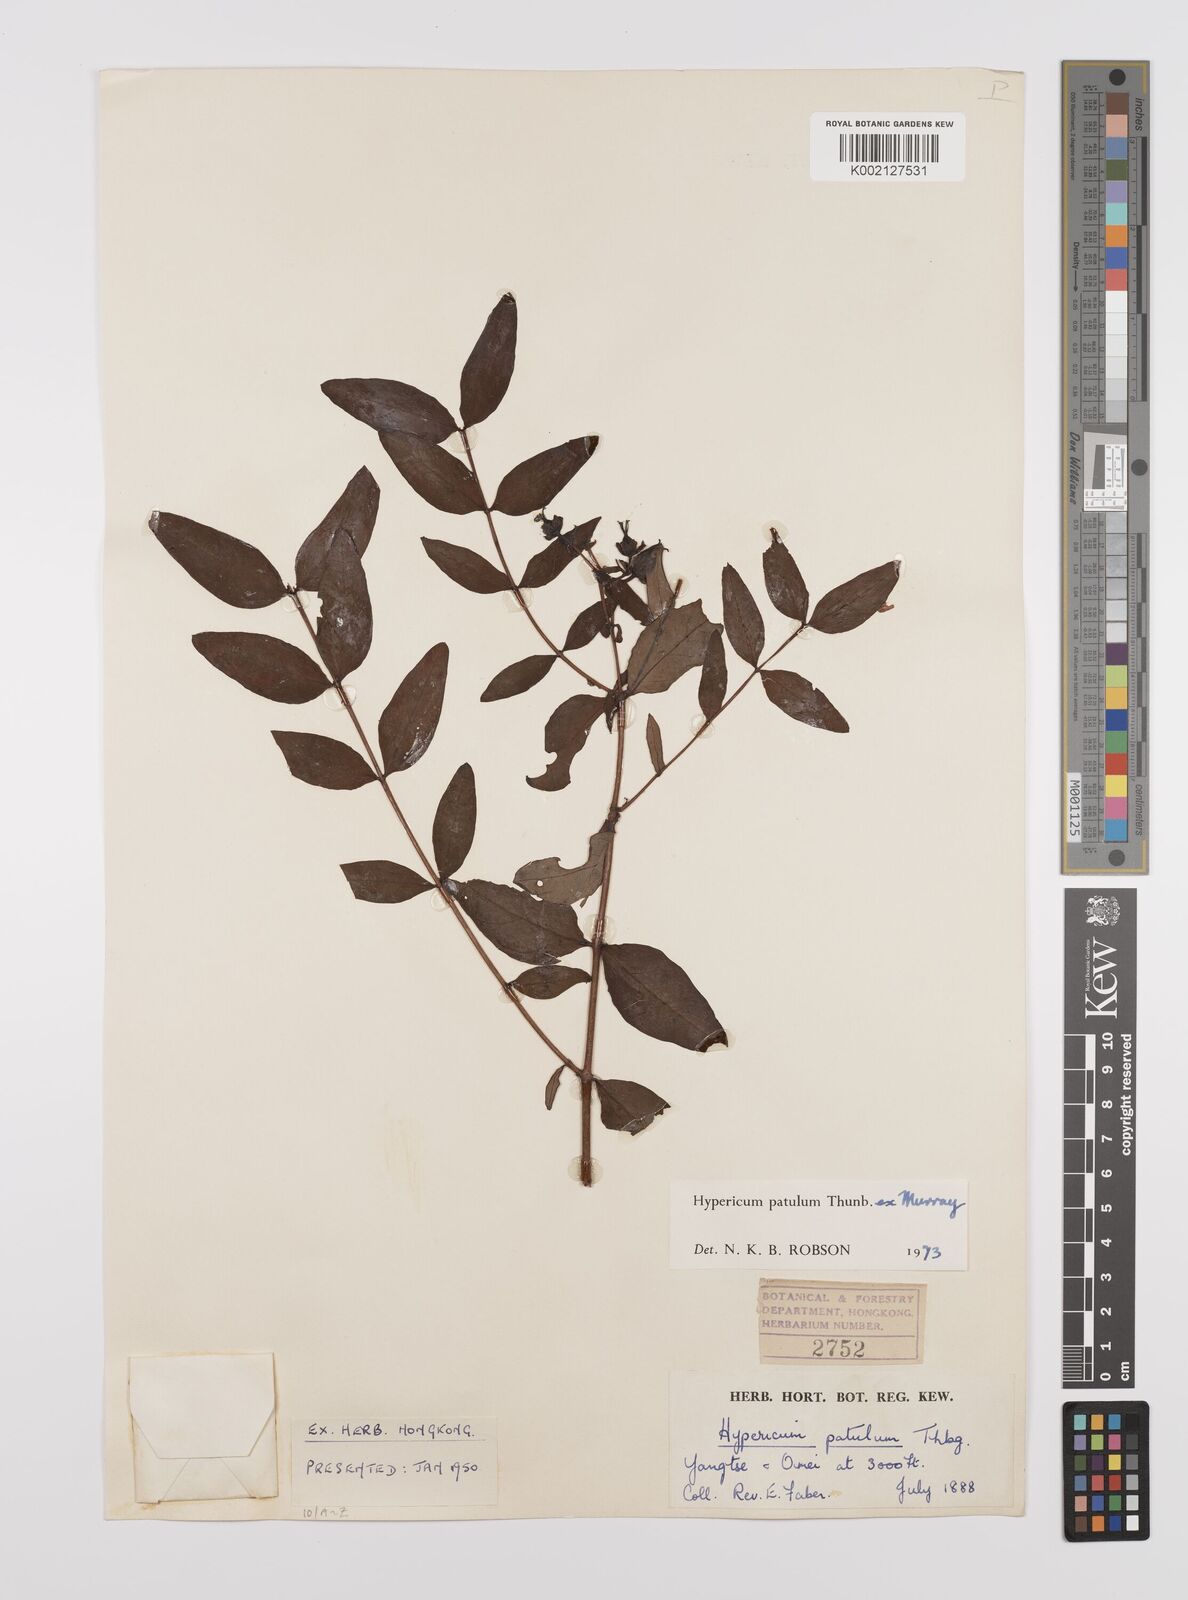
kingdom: Plantae
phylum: Tracheophyta
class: Magnoliopsida
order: Malpighiales
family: Hypericaceae
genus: Hypericum
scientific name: Hypericum patulum
